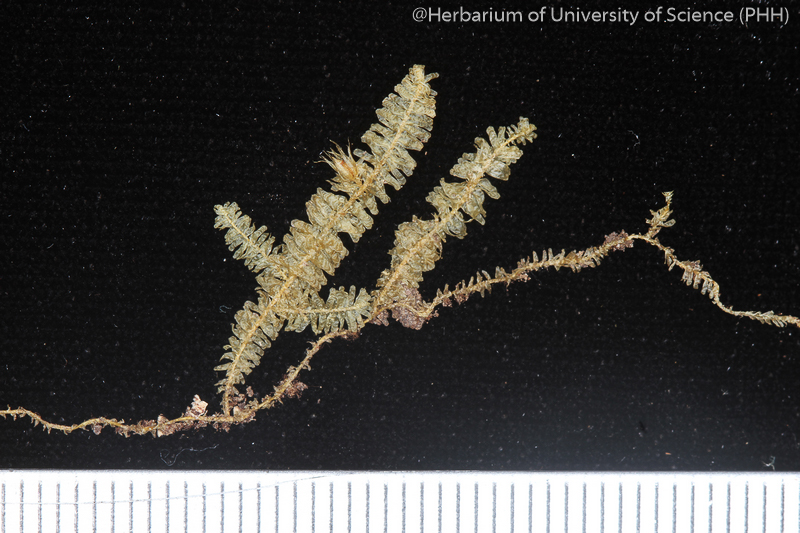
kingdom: Plantae
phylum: Bryophyta
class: Bryopsida
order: Hypnales
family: Neckeraceae
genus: Neckeropsis
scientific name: Neckeropsis andamana
